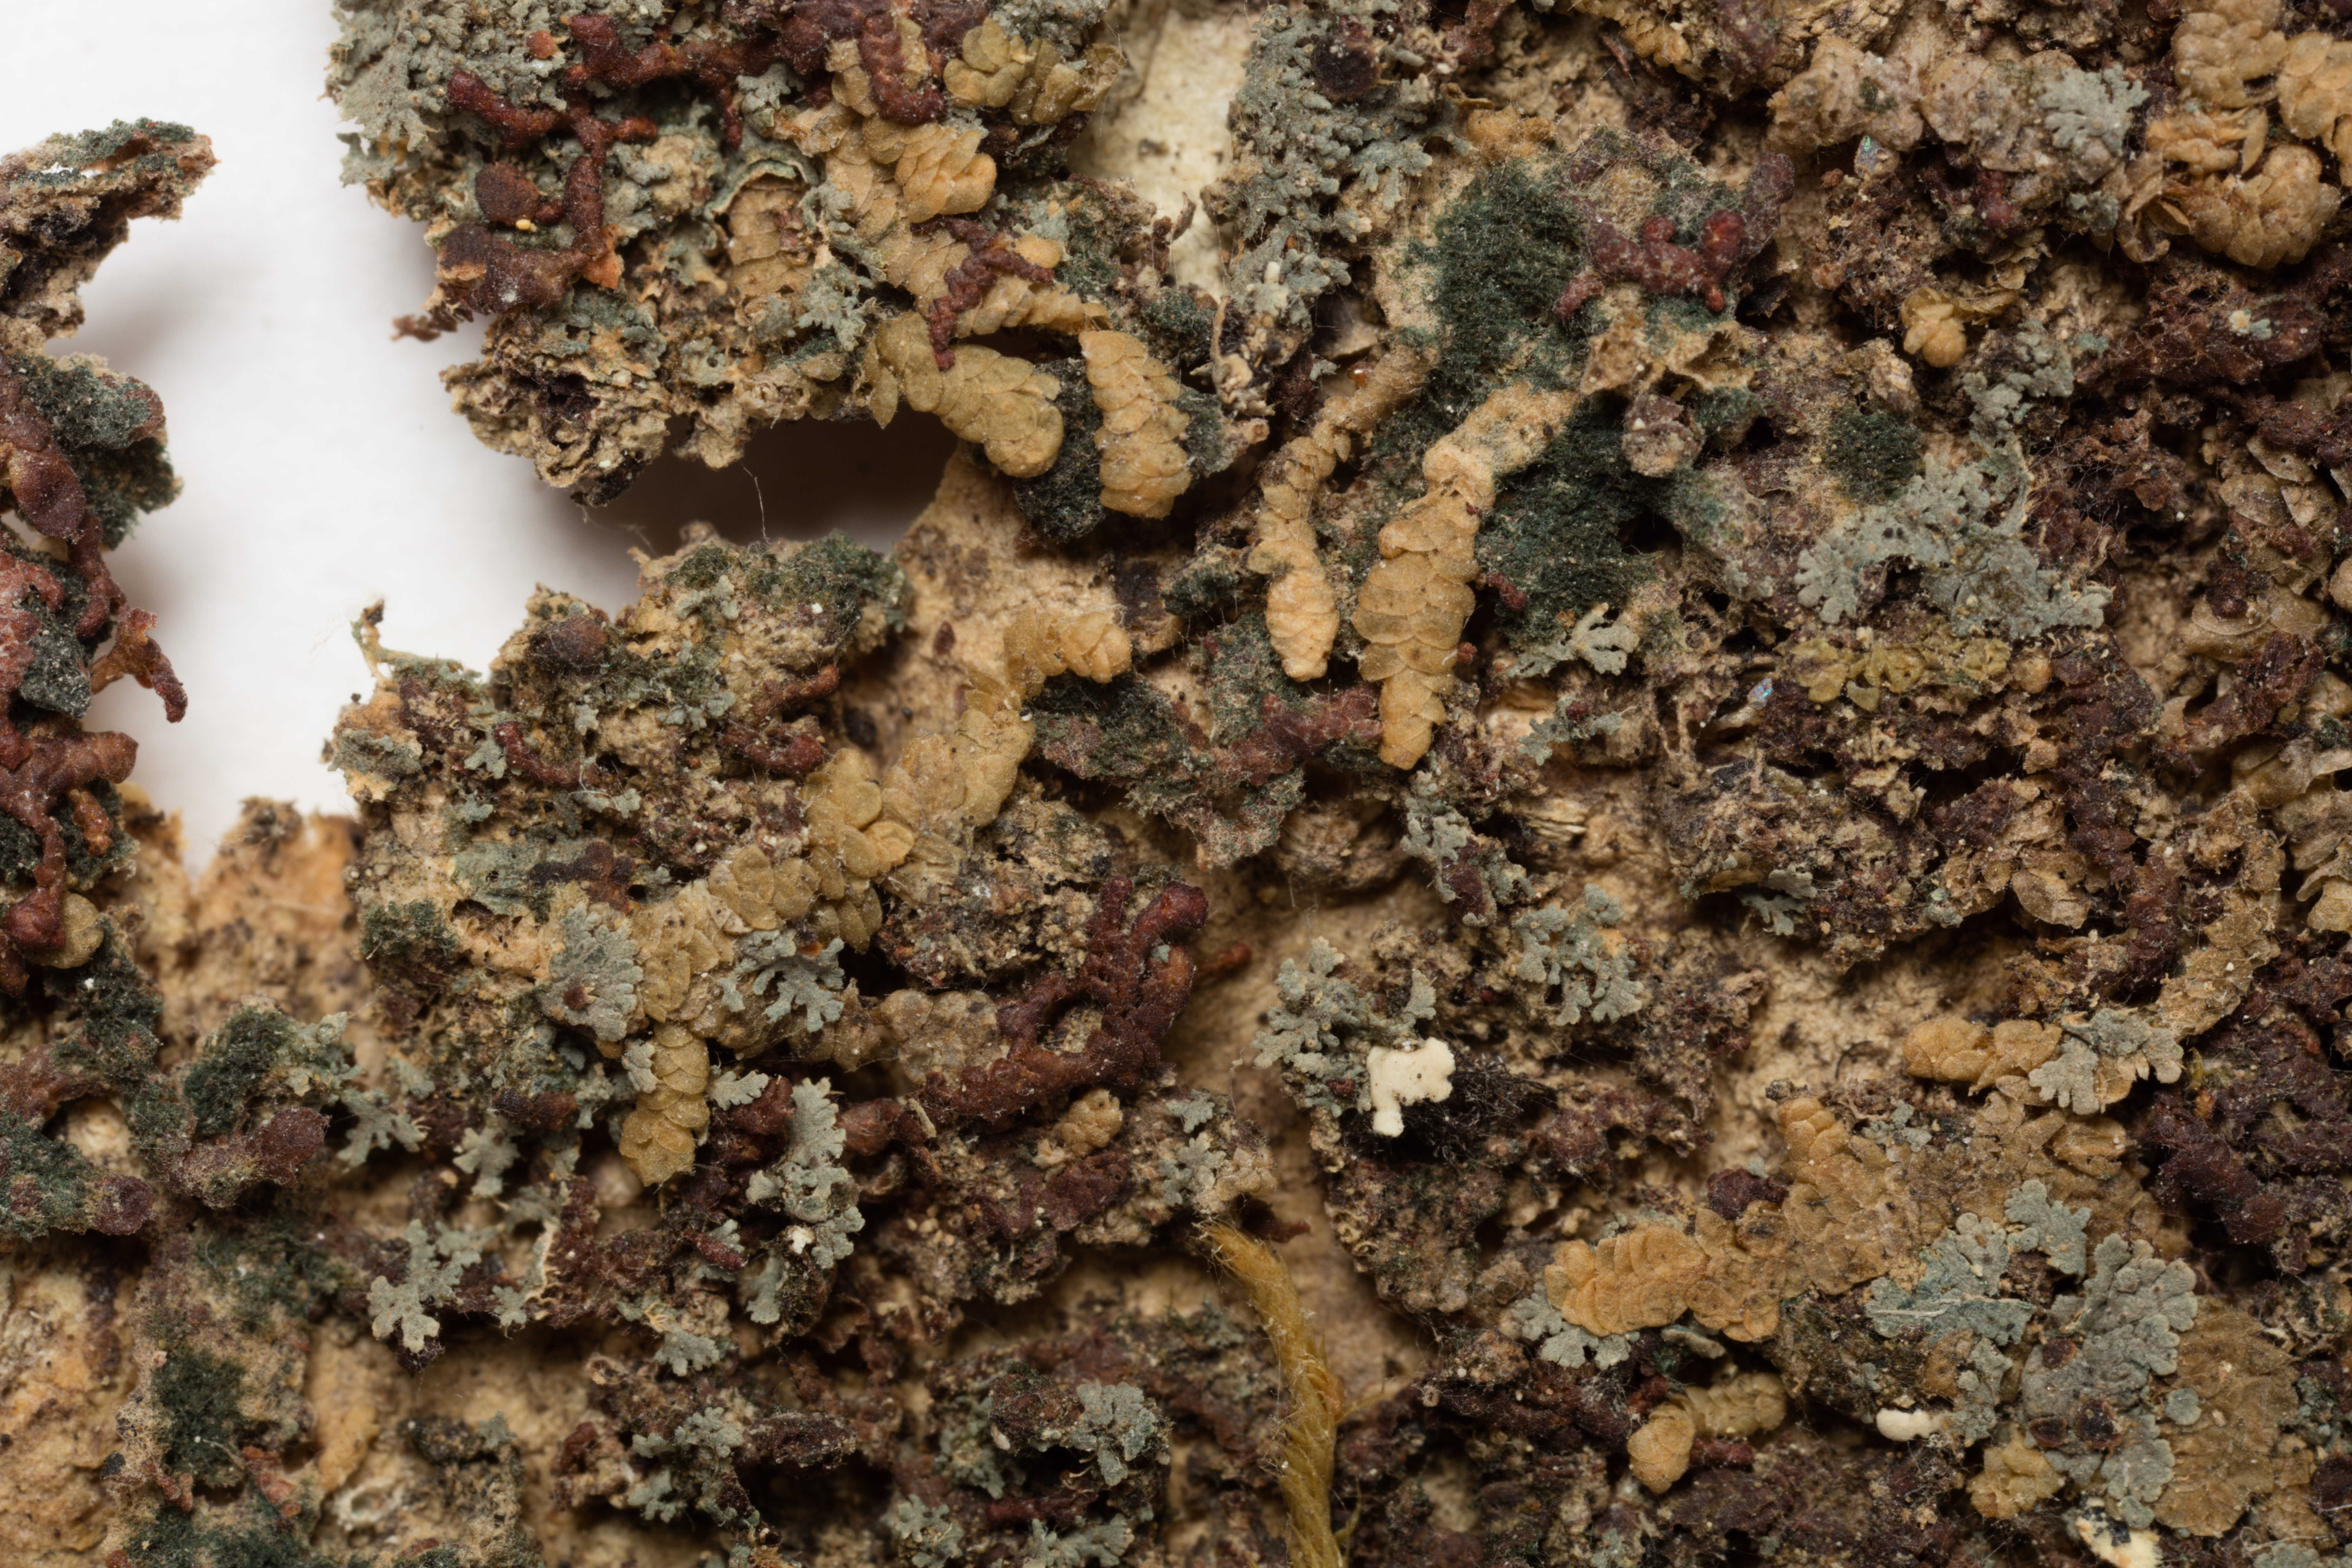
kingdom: Fungi
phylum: Ascomycota
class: Lecanoromycetes
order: Peltigerales
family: Coccocarpiaceae
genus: Coccocarpia
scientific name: Coccocarpia stellata
